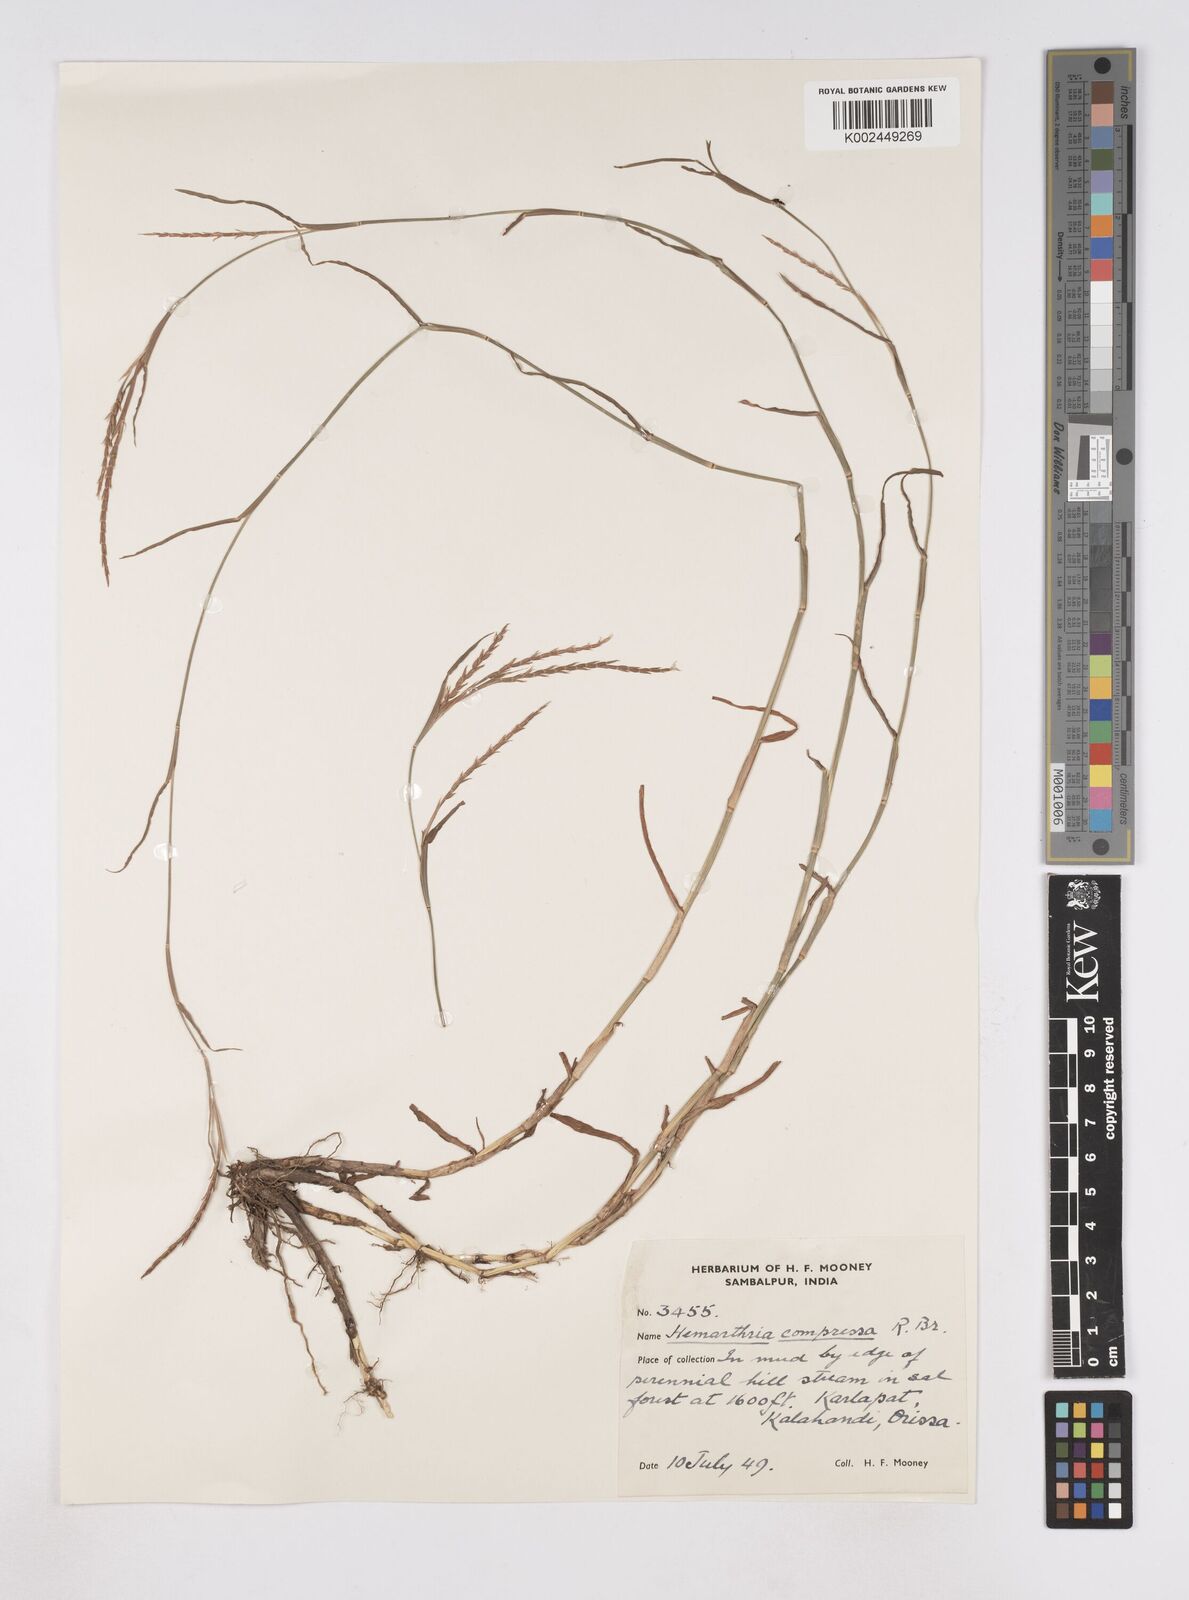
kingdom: Plantae
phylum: Tracheophyta
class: Liliopsida
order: Poales
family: Poaceae
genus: Hemarthria
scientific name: Hemarthria compressa
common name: Whip grass
